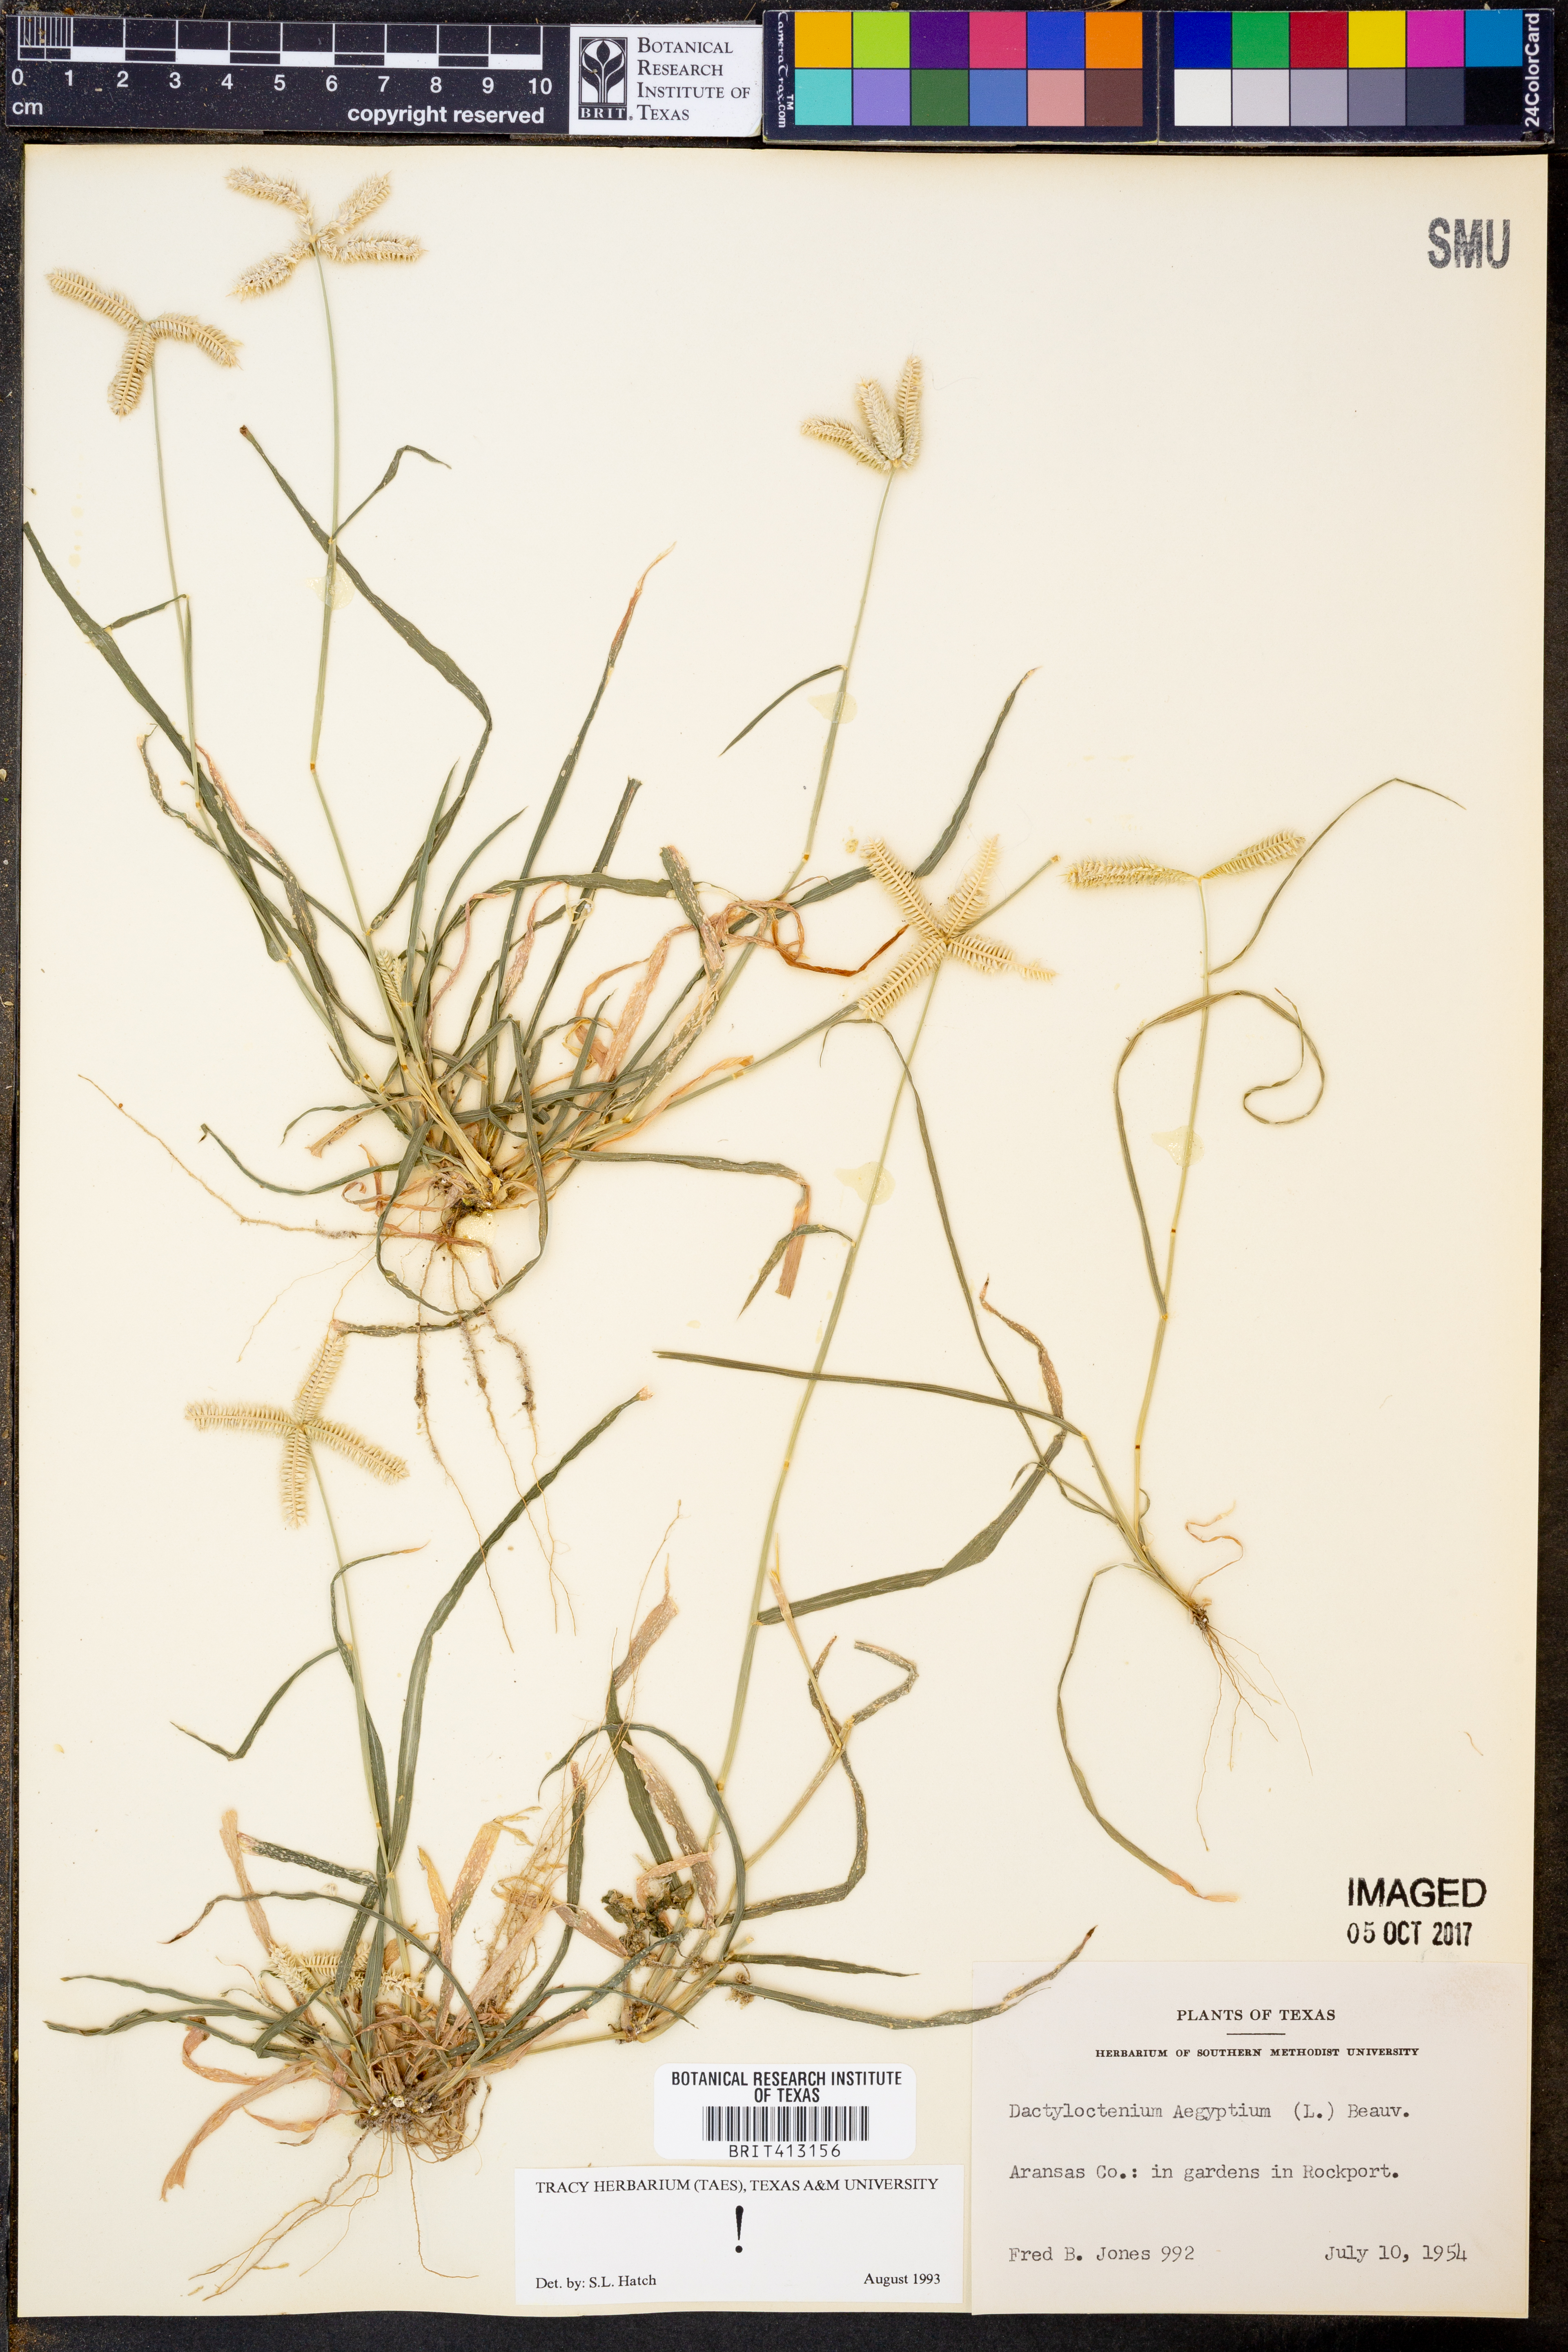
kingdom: Plantae
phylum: Tracheophyta
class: Liliopsida
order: Poales
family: Poaceae
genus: Dactyloctenium
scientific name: Dactyloctenium aegyptium
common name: Egyptian grass
